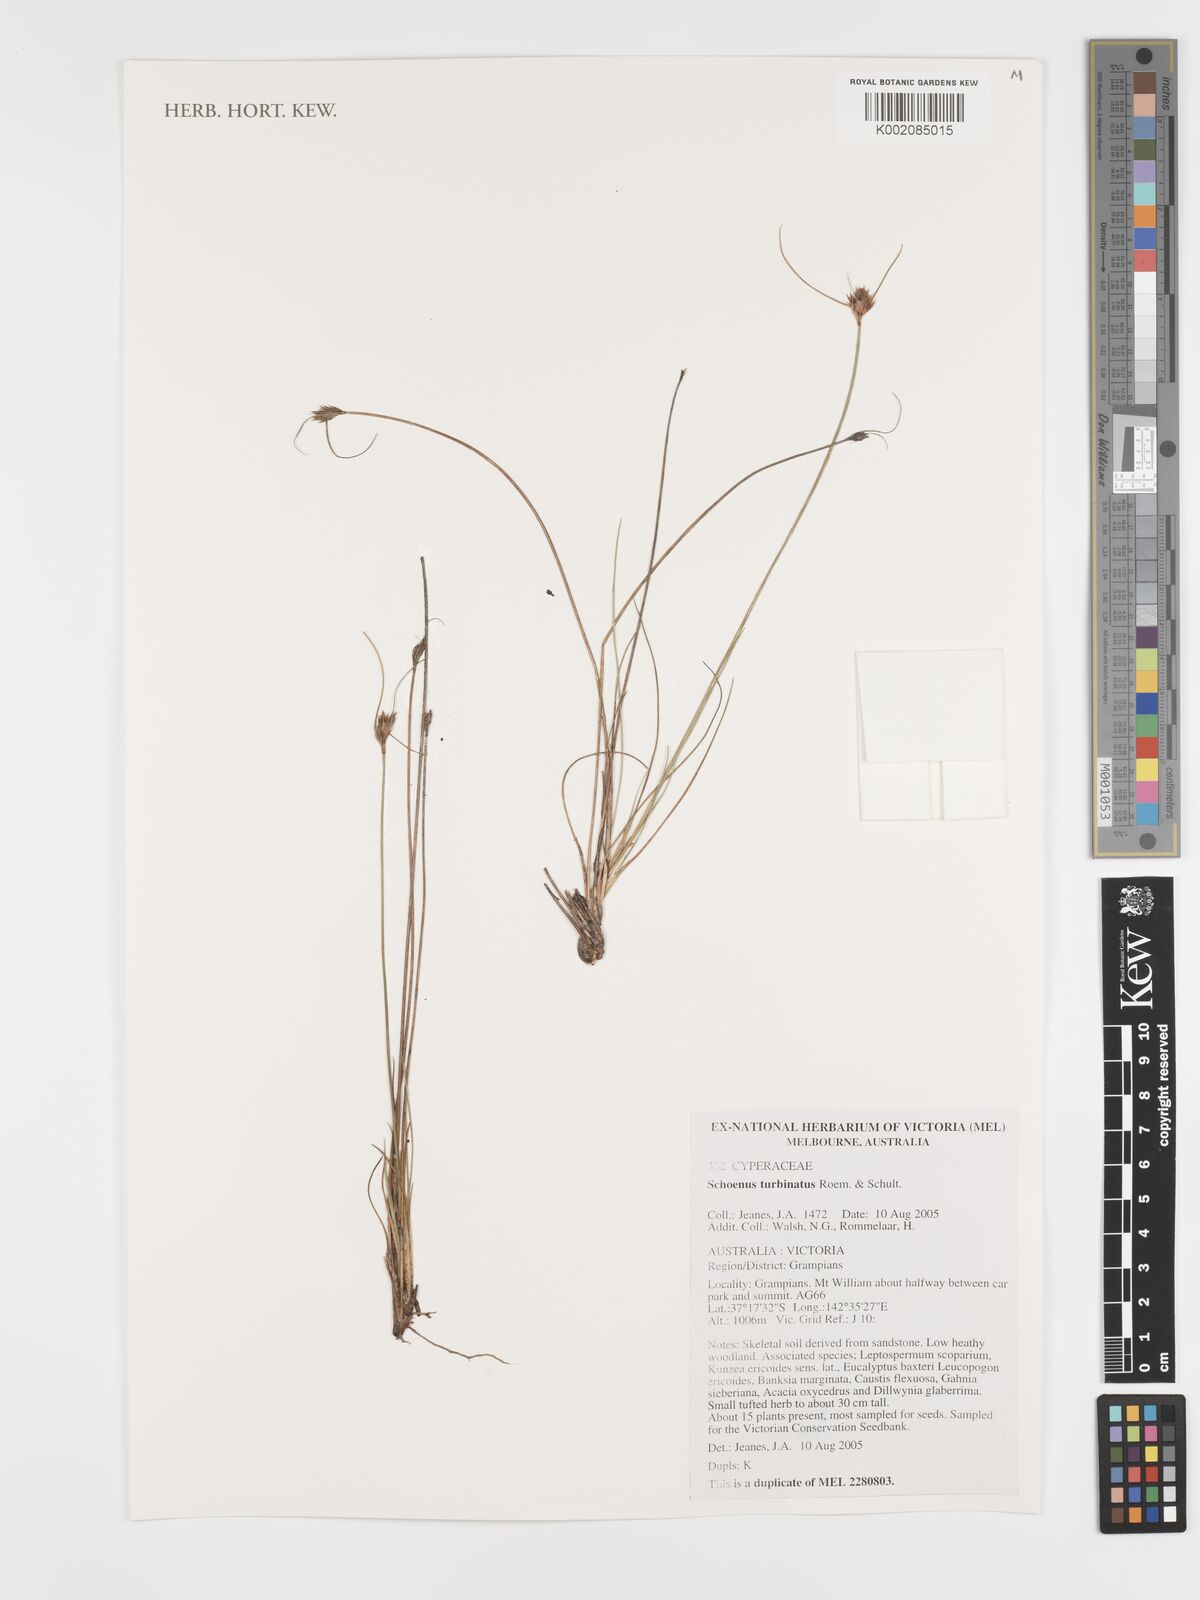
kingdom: Plantae
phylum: Tracheophyta
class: Liliopsida
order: Poales
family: Cyperaceae
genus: Schoenus
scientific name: Schoenus turbinatus
